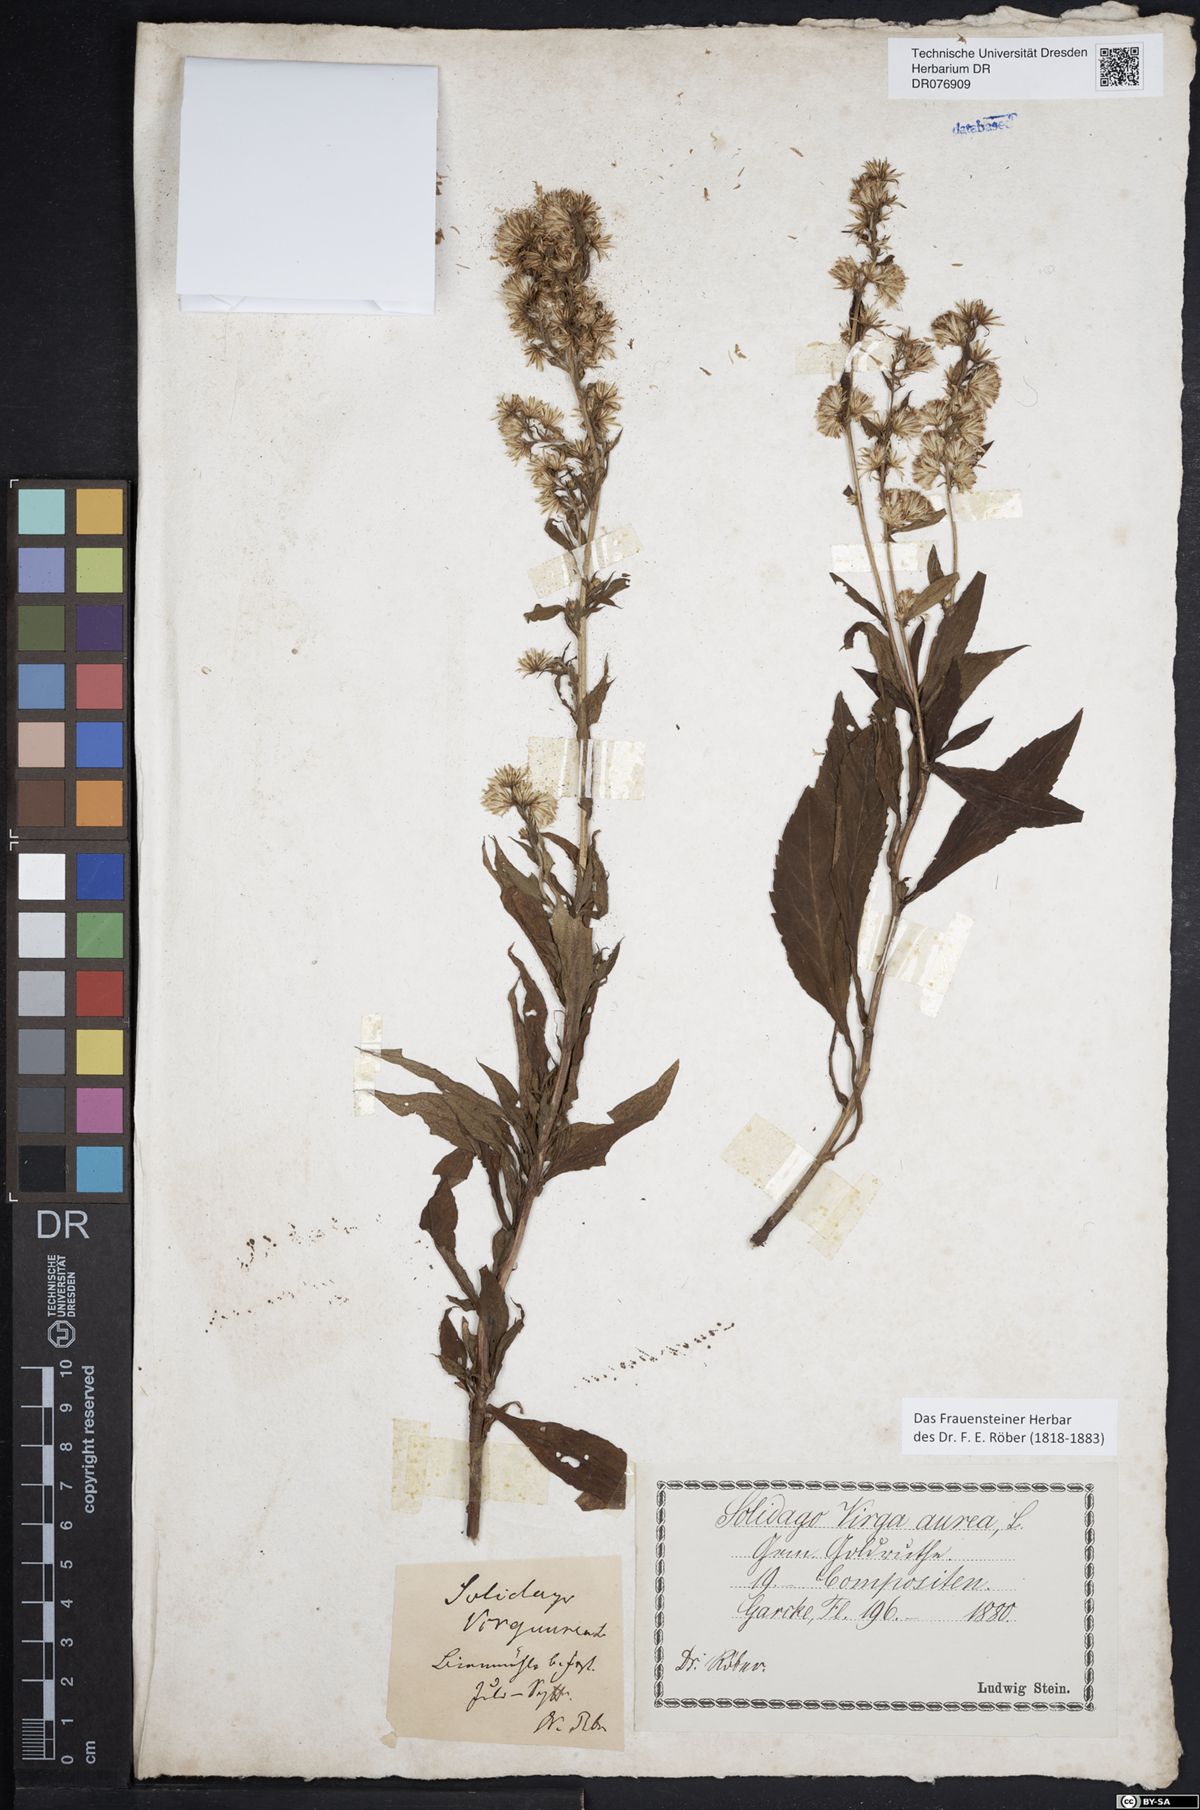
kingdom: Plantae
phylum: Tracheophyta
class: Magnoliopsida
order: Asterales
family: Asteraceae
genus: Solidago
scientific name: Solidago virgaurea
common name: Goldenrod
